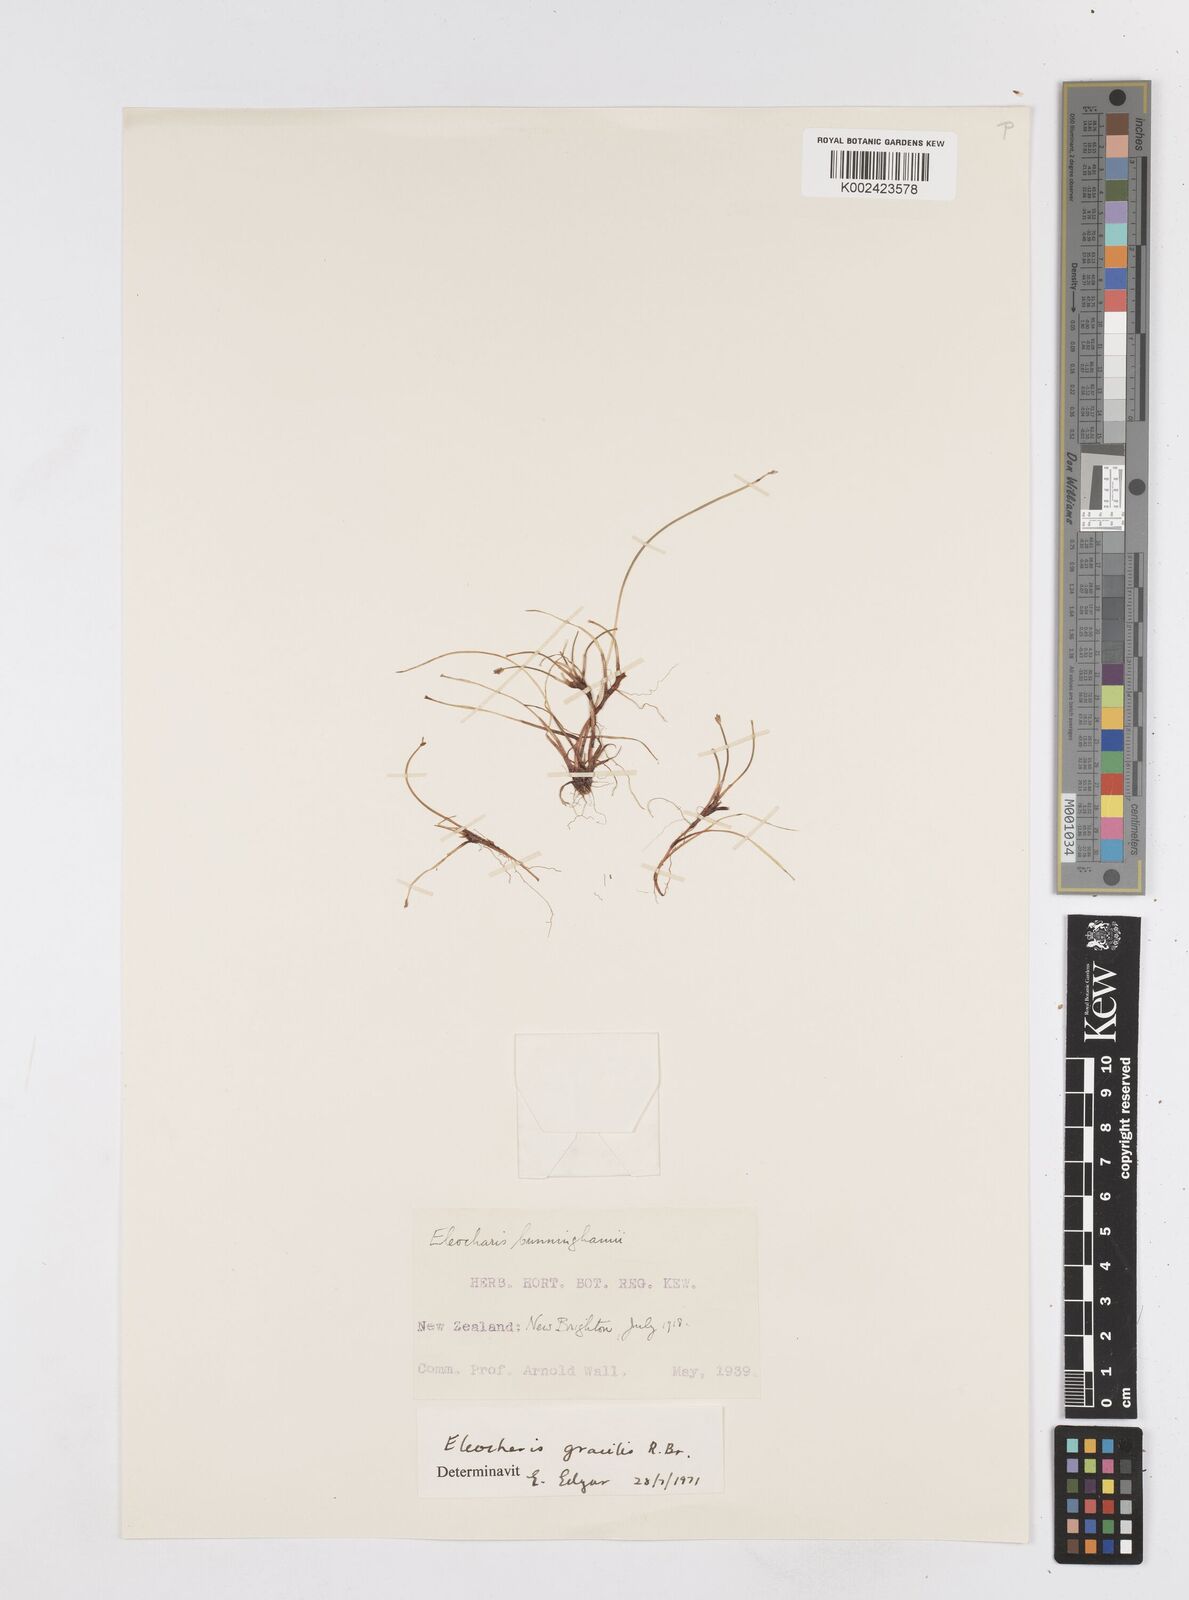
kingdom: Plantae
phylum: Tracheophyta
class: Liliopsida
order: Poales
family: Cyperaceae
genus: Eleocharis
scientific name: Eleocharis gracilis
